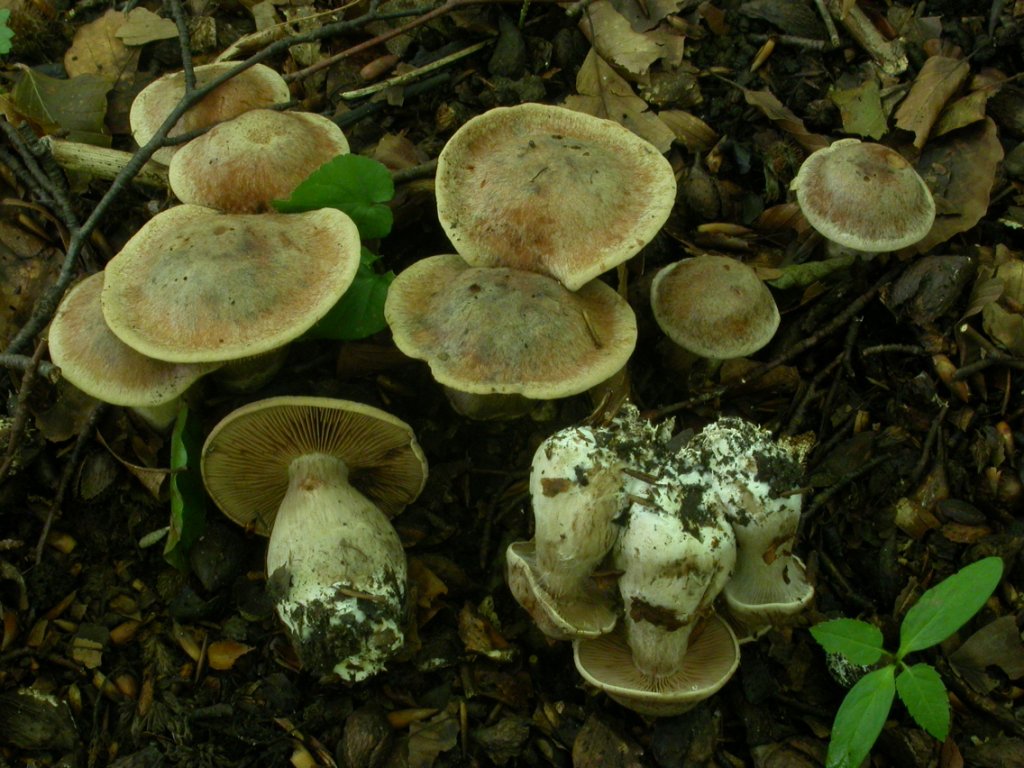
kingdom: Fungi
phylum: Basidiomycota
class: Agaricomycetes
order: Agaricales
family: Cortinariaceae
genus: Cortinarius
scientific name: Cortinarius aprinus
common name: vildsvine-slørhat
